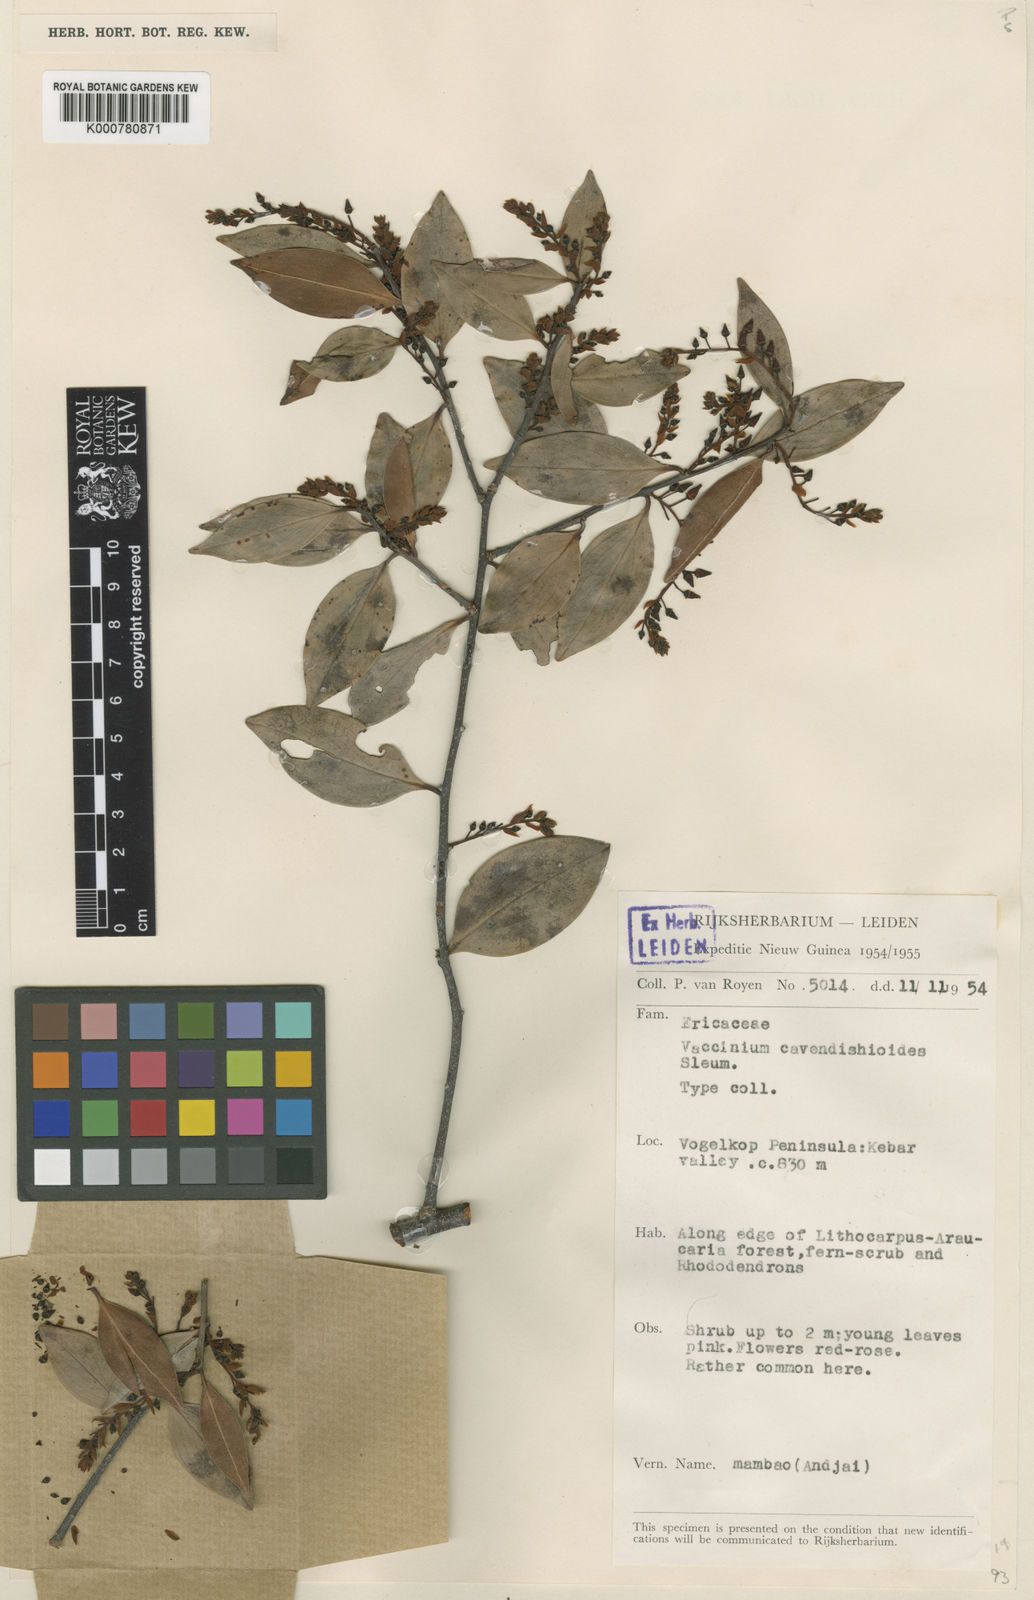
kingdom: Plantae
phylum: Tracheophyta
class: Magnoliopsida
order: Ericales
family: Ericaceae
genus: Vaccinium
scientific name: Vaccinium cavendishioides
